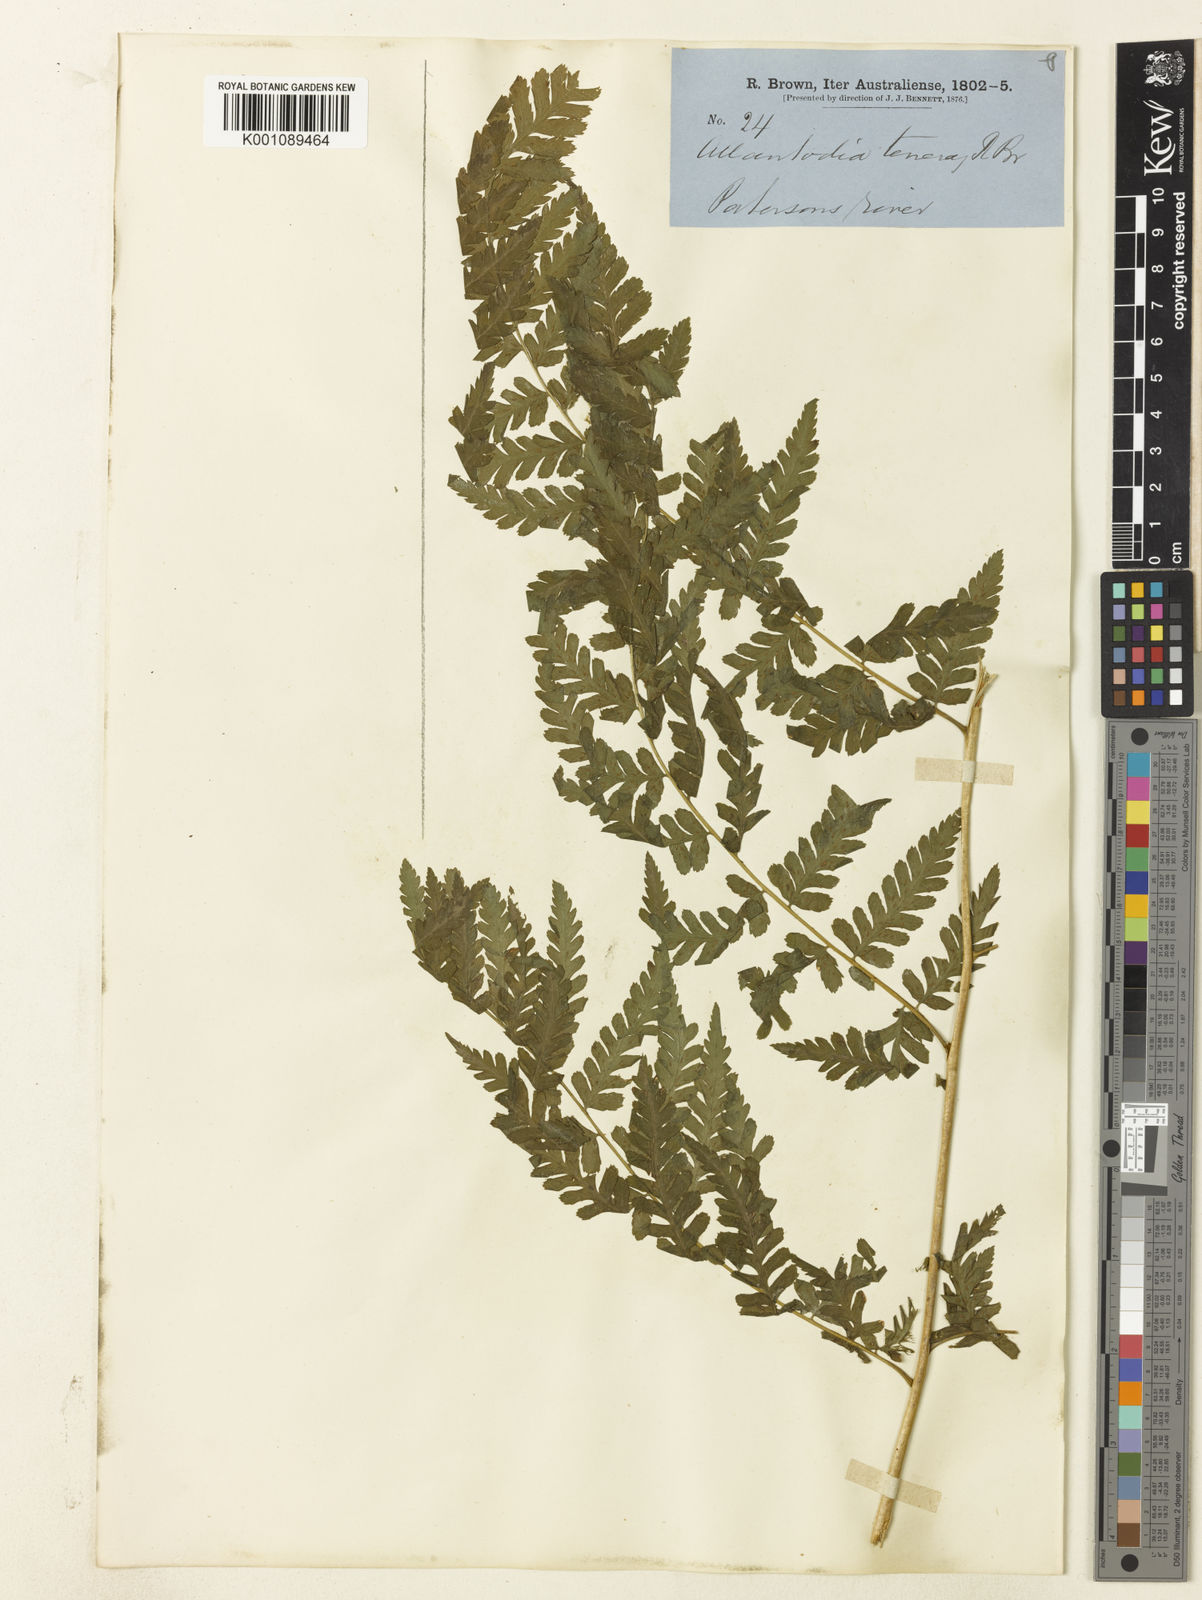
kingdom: Plantae
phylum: Tracheophyta
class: Polypodiopsida
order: Polypodiales
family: Athyriaceae
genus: Diplazium
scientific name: Diplazium australe
